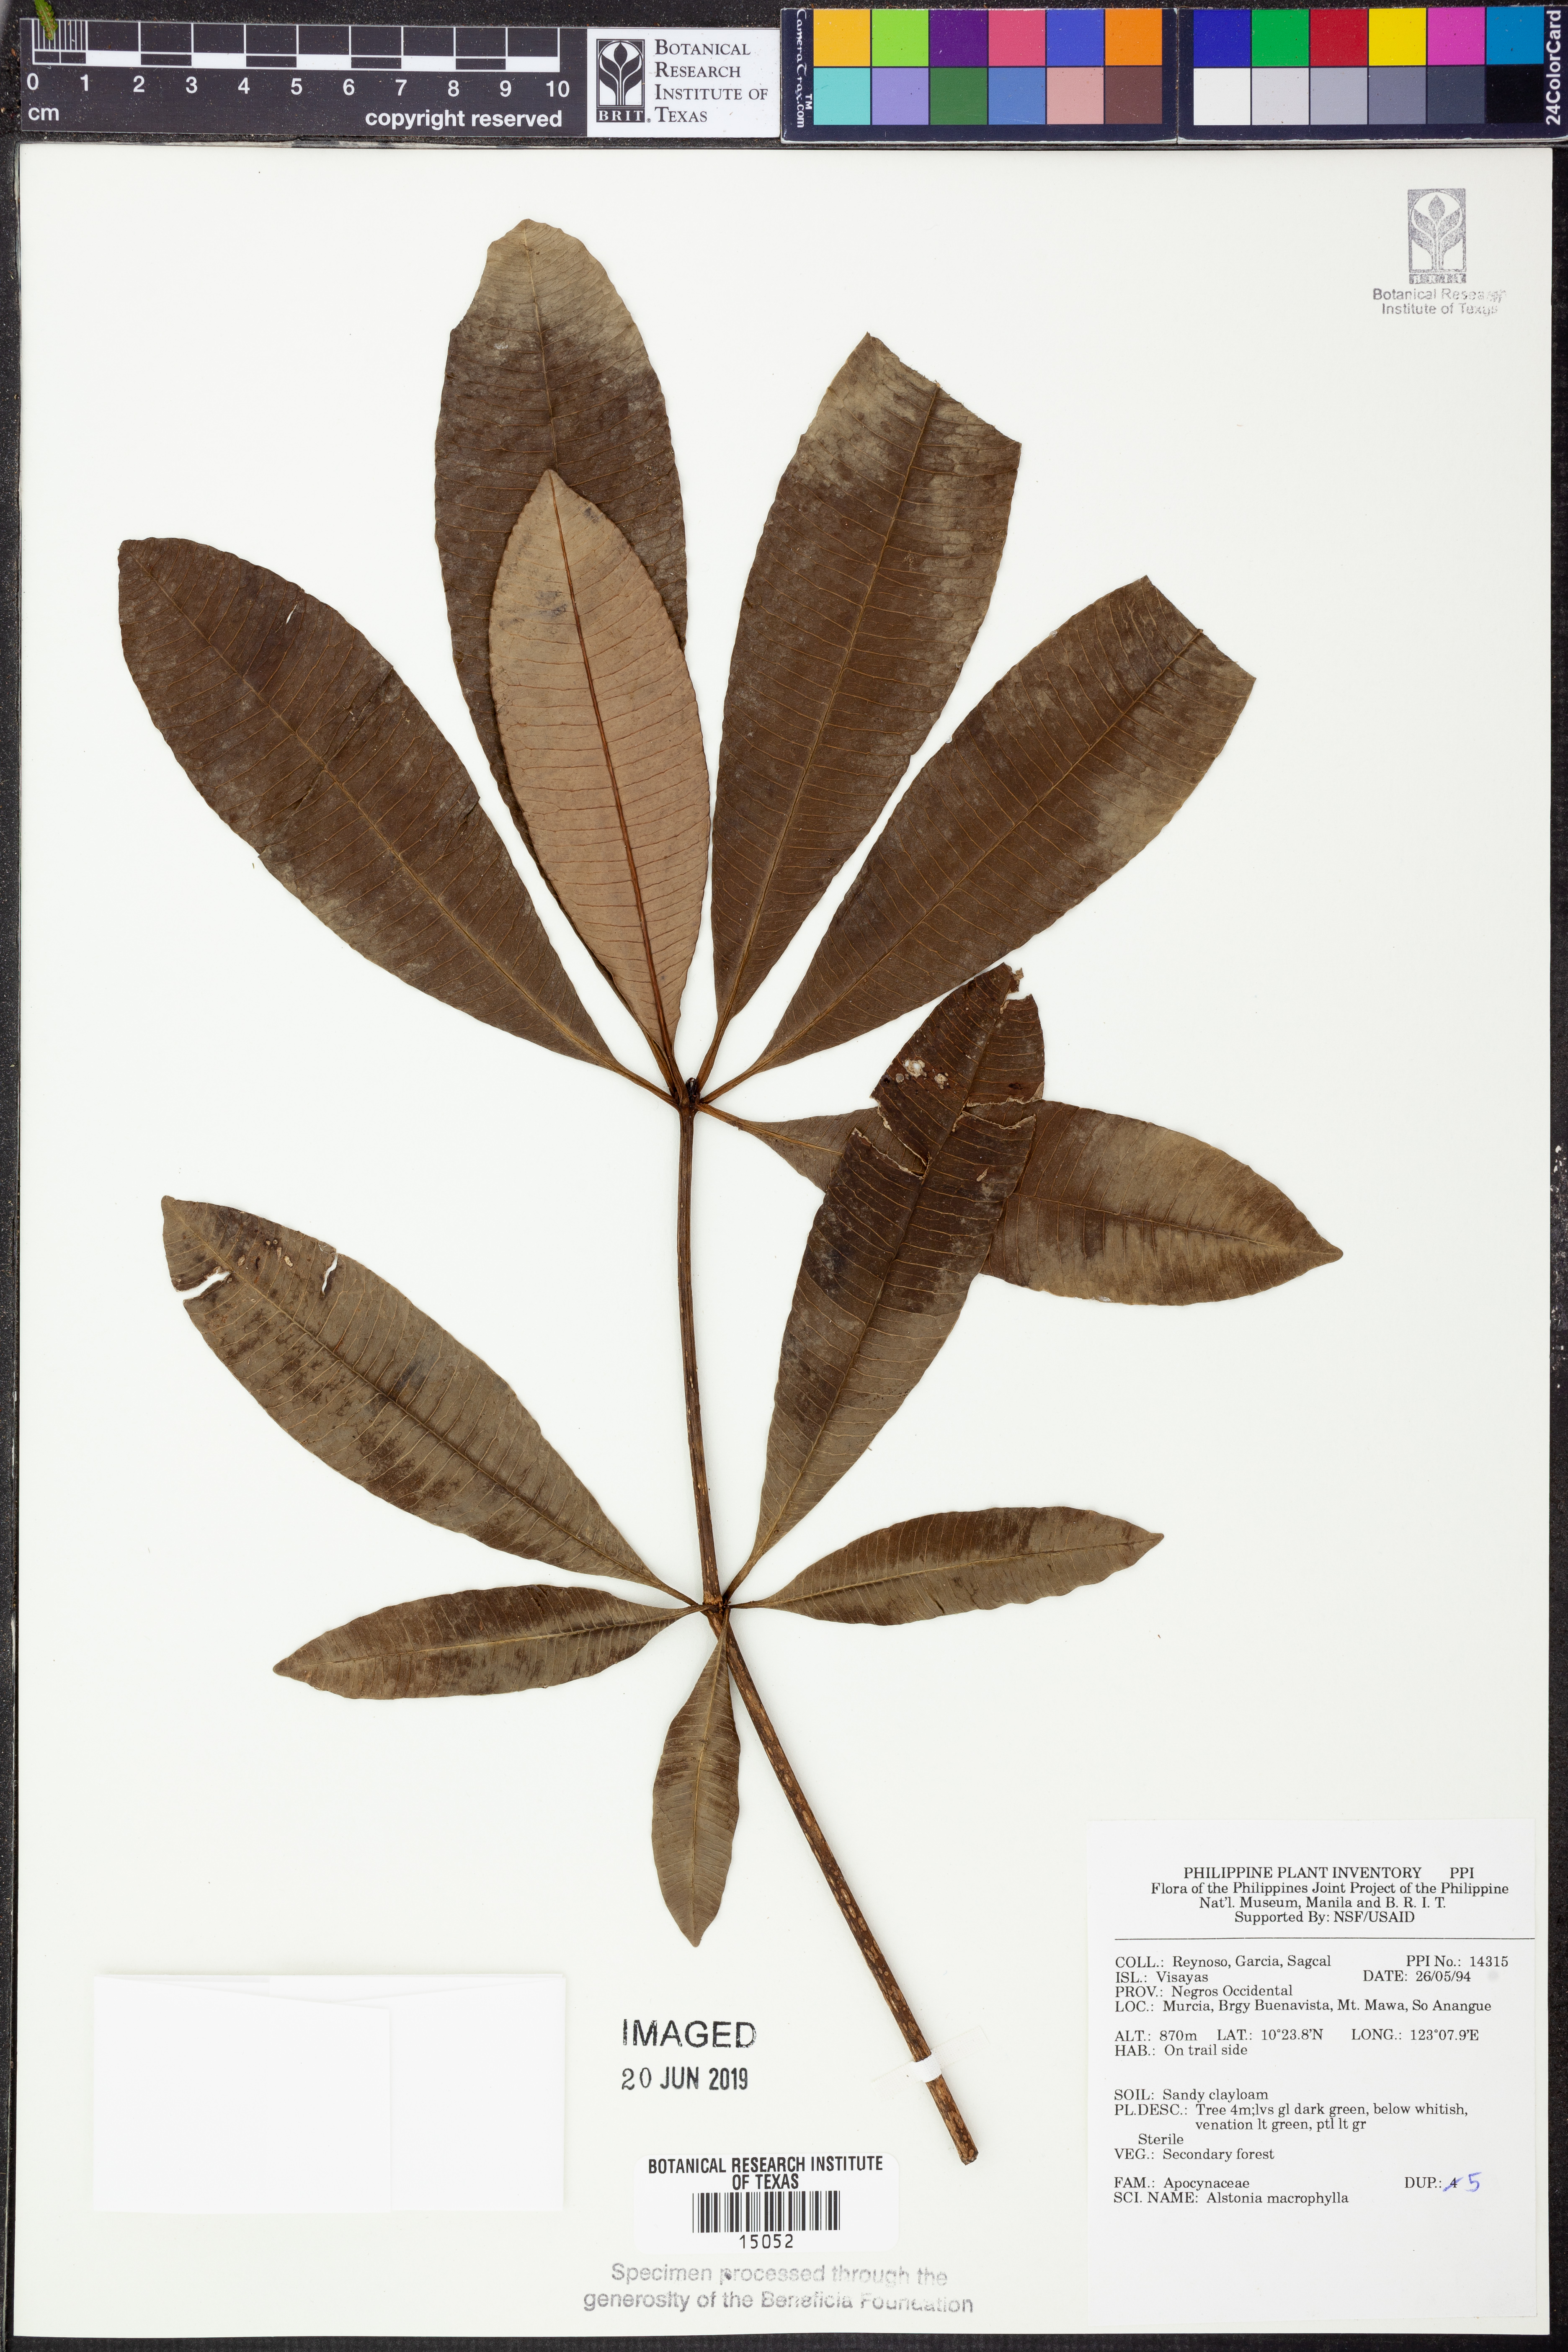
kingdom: Plantae
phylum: Tracheophyta
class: Magnoliopsida
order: Gentianales
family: Apocynaceae
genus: Alstonia
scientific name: Alstonia macrophylla
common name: Deviltree
